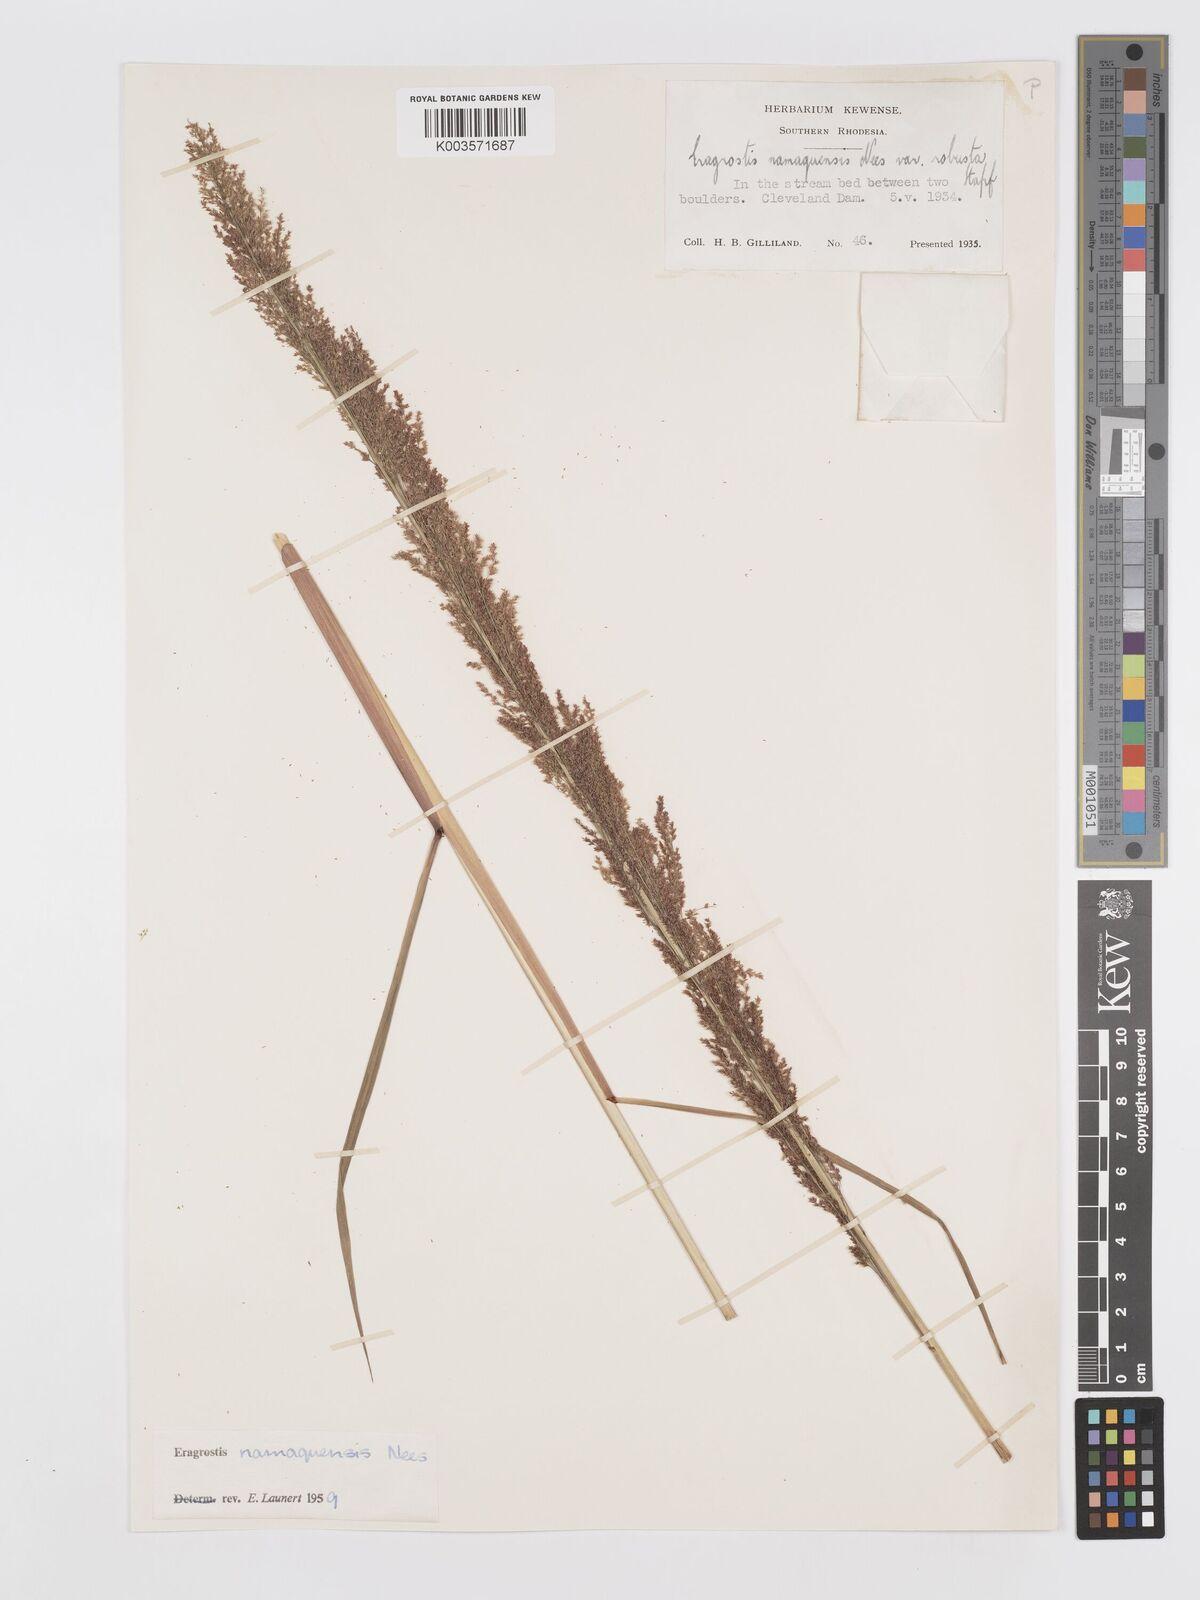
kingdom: Plantae
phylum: Tracheophyta
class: Liliopsida
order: Poales
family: Poaceae
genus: Eragrostis
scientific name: Eragrostis japonica
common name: Pond lovegrass
